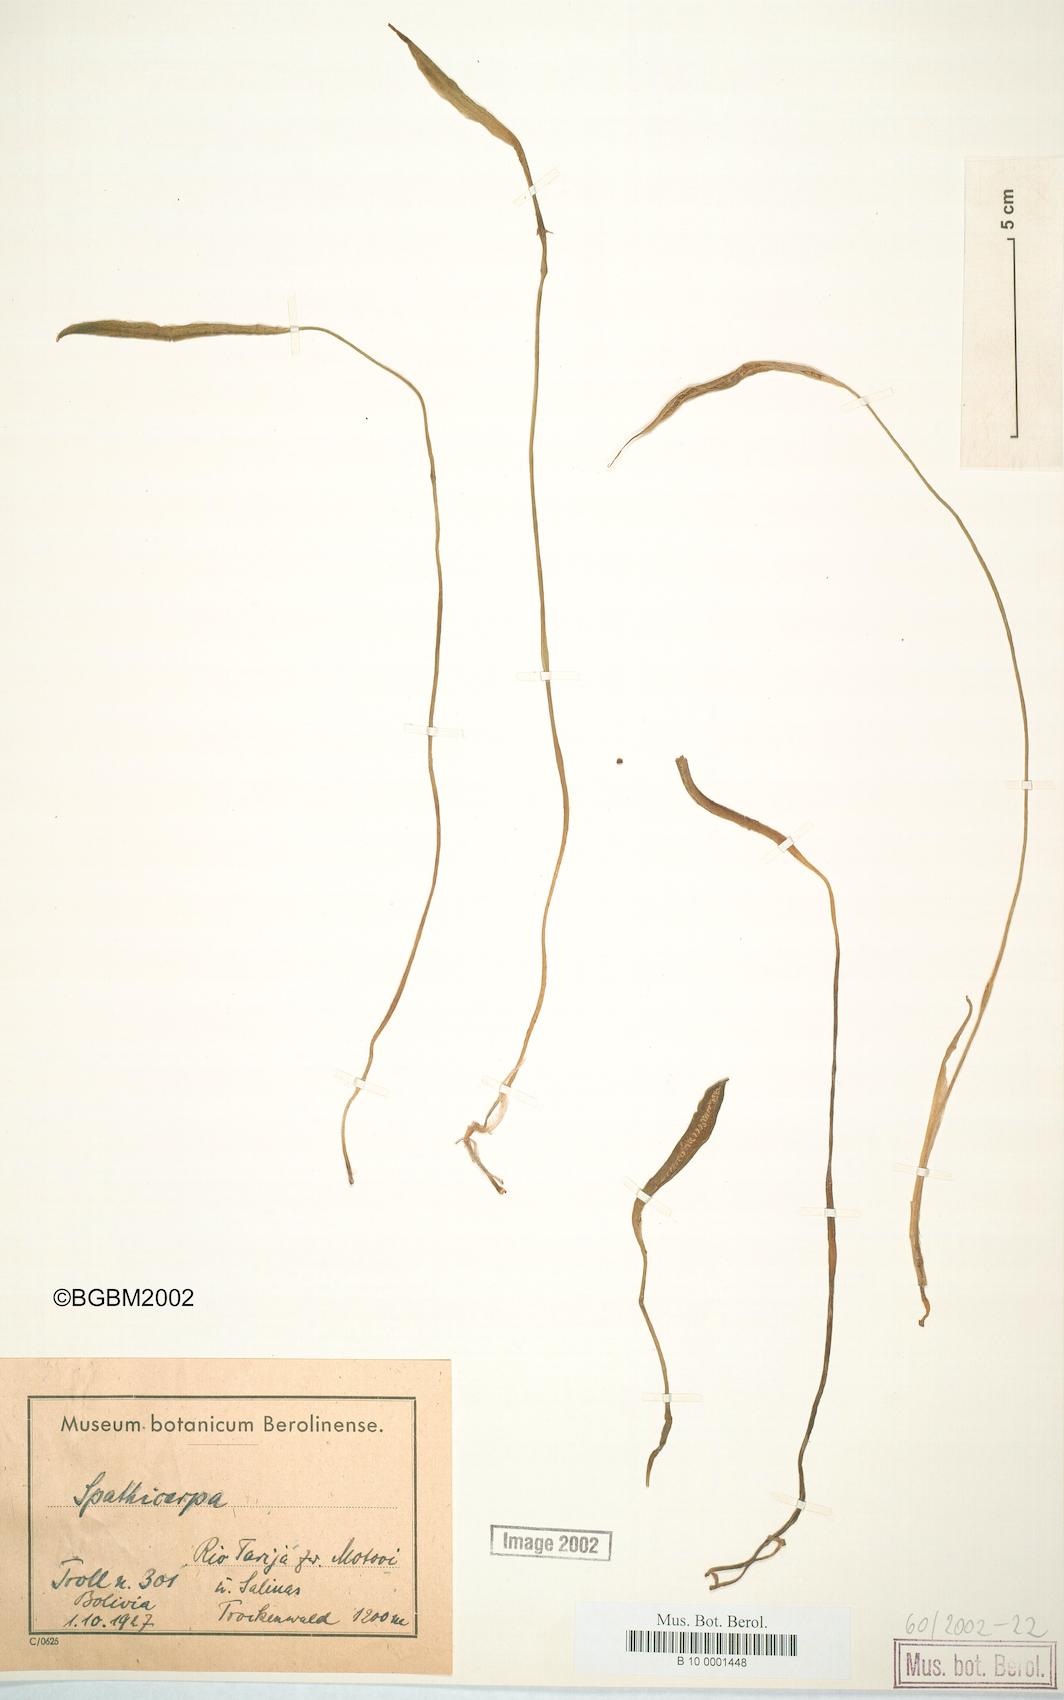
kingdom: Plantae
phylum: Tracheophyta
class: Liliopsida
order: Alismatales
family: Araceae
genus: Spathicarpa
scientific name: Spathicarpa
